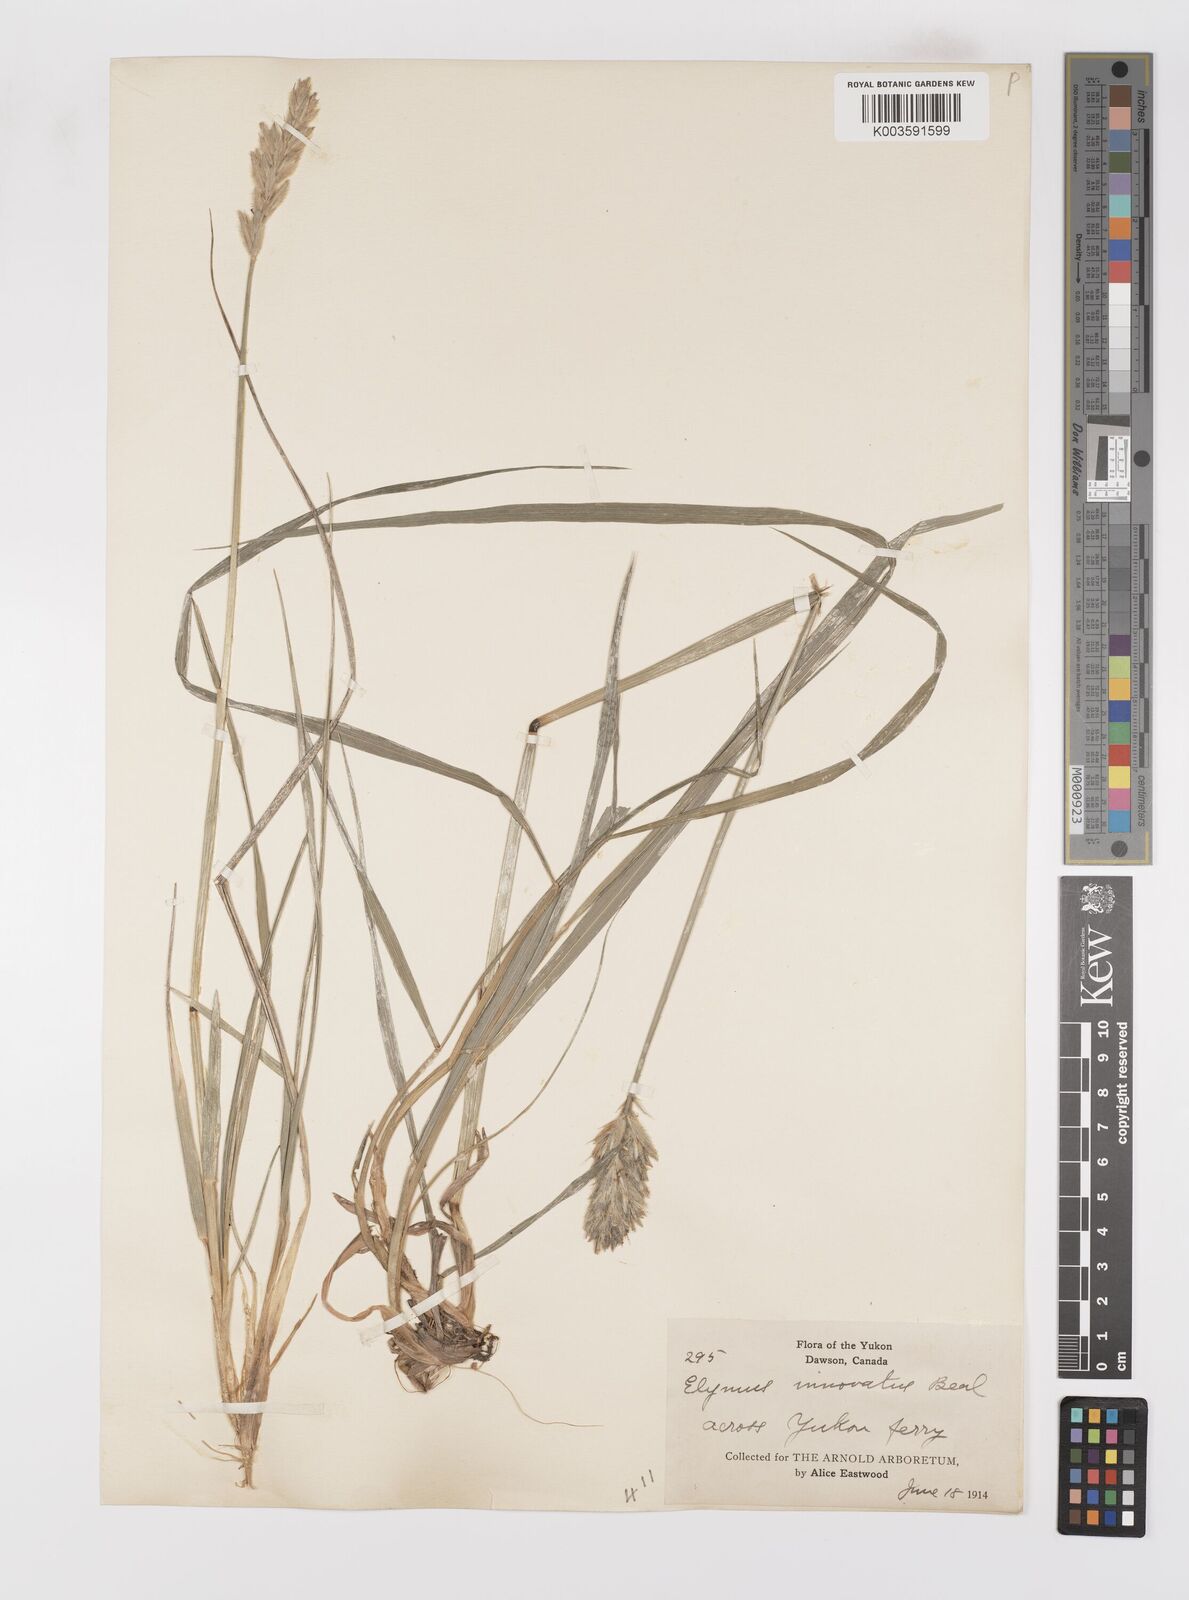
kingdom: Plantae
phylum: Tracheophyta
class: Liliopsida
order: Poales
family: Poaceae
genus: Leymus
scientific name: Leymus innovatus
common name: Boreal wild rye
